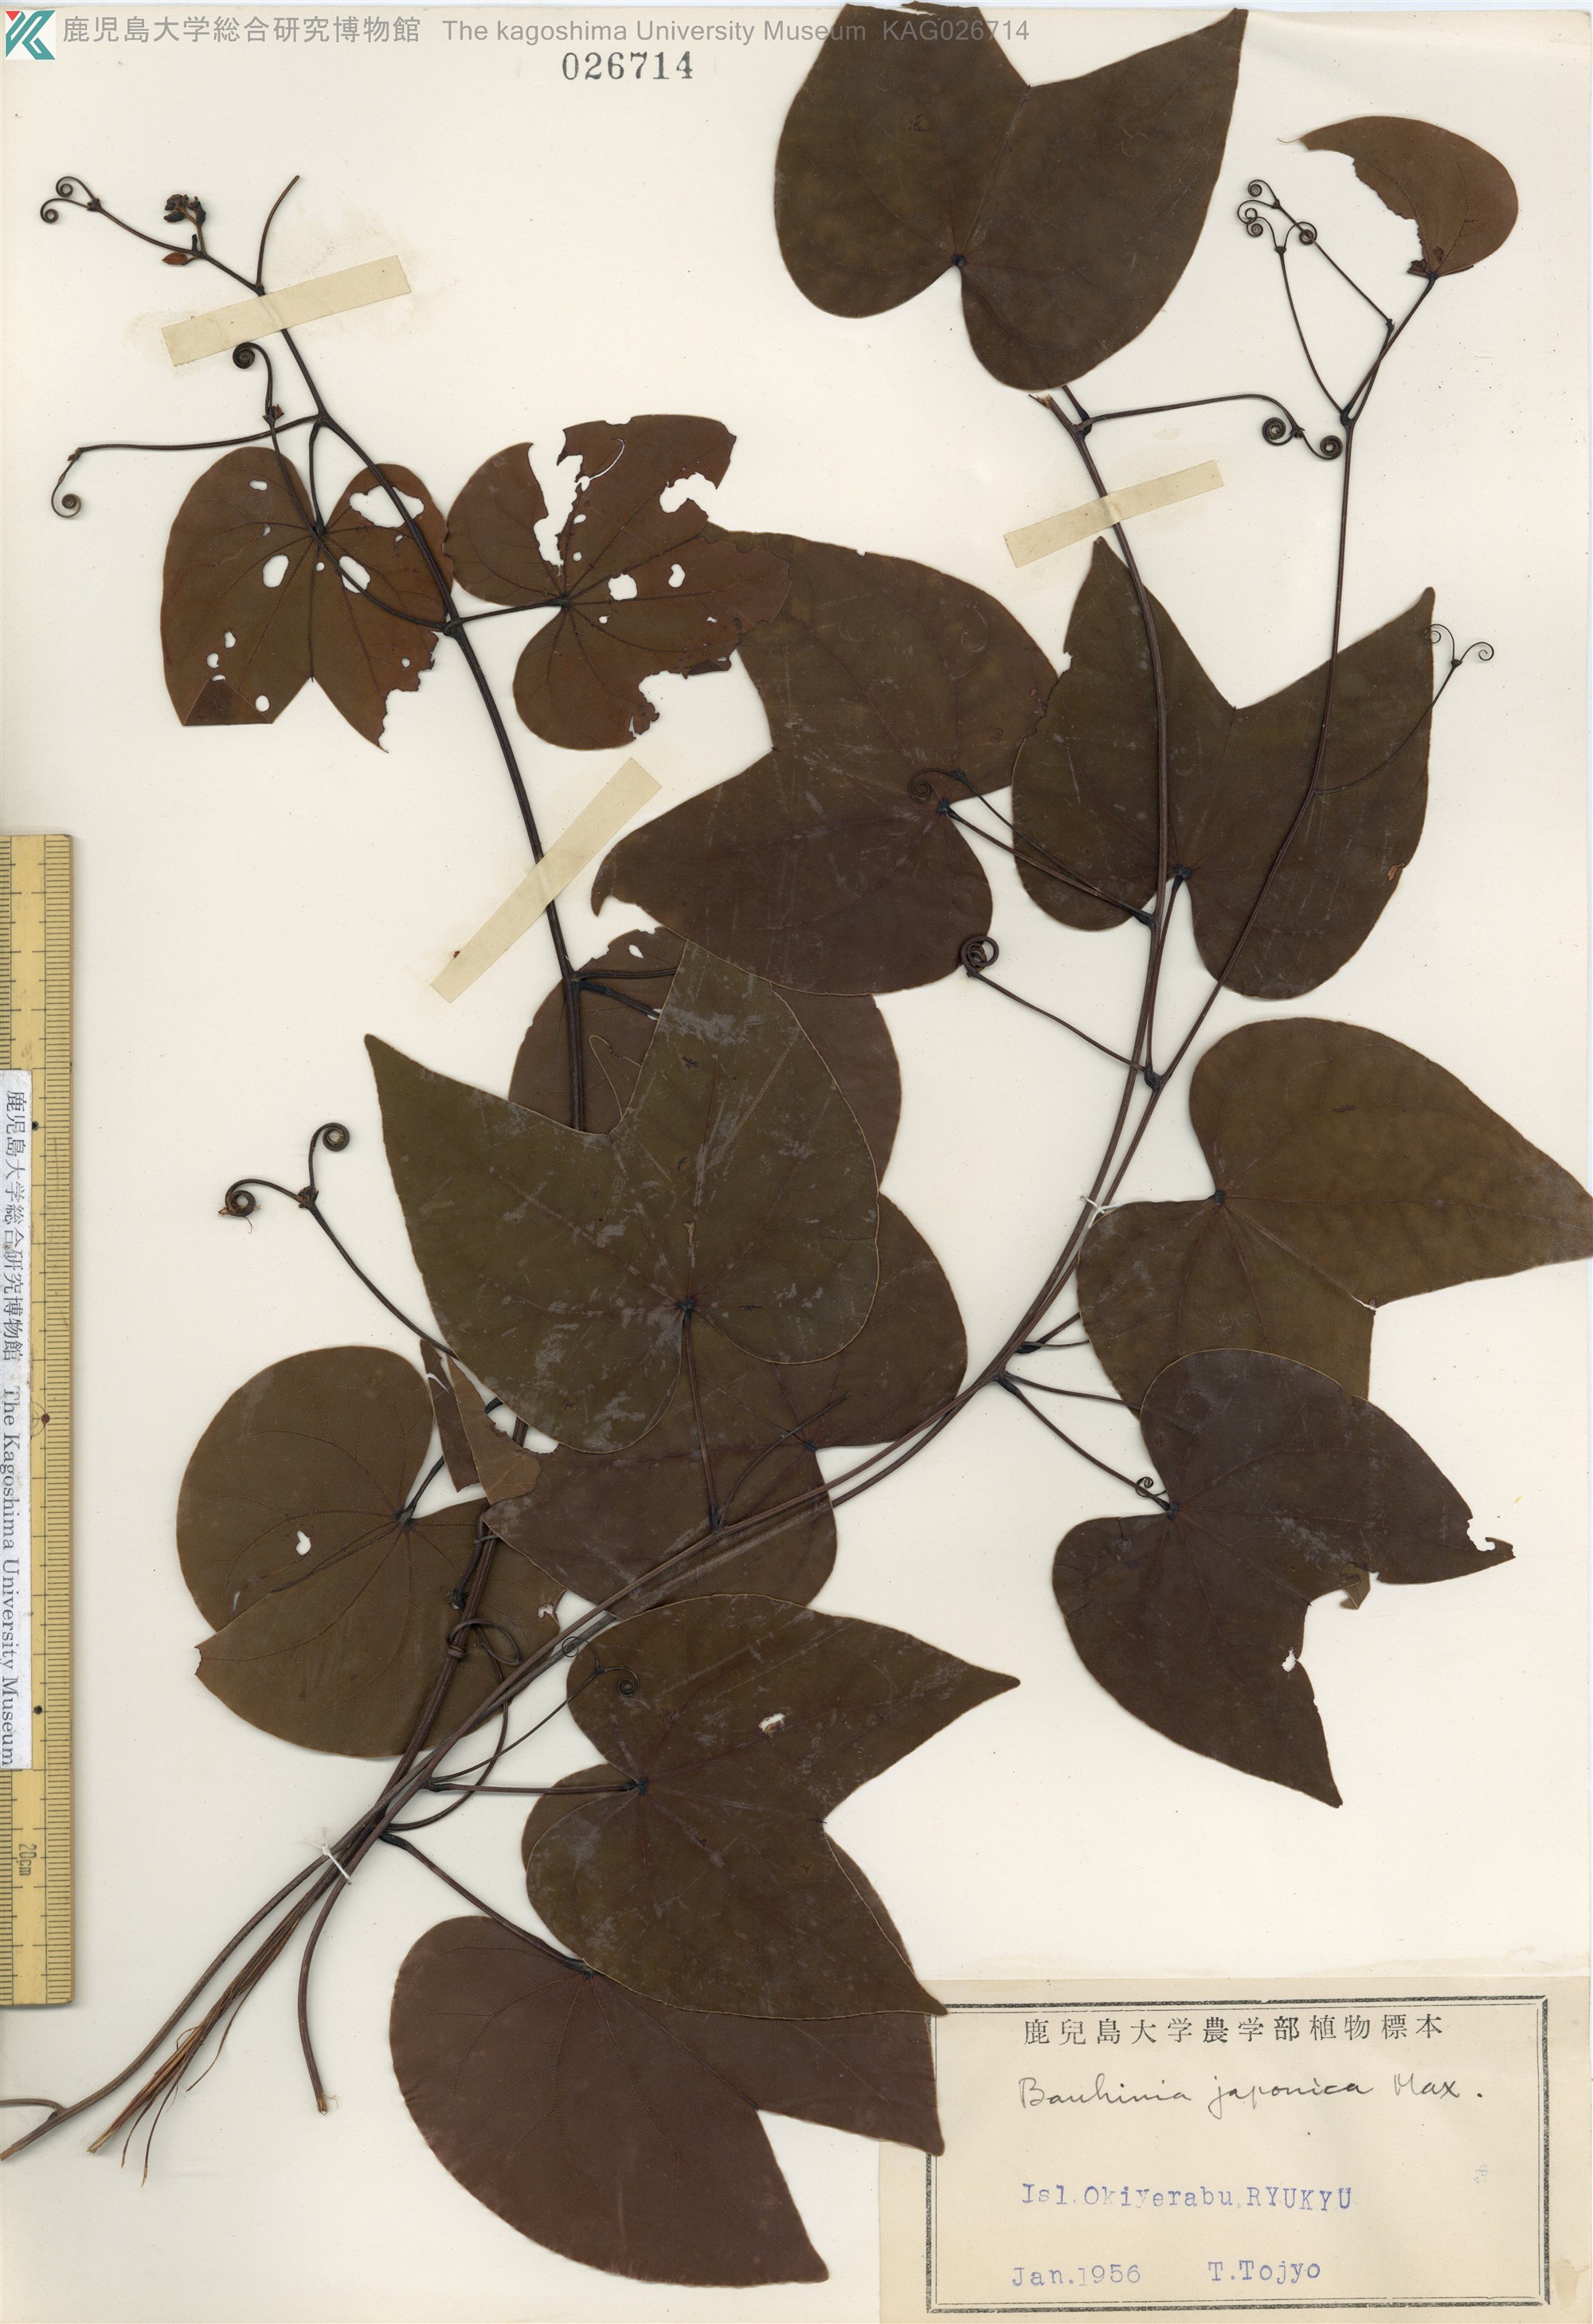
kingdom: Plantae
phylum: Tracheophyta
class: Magnoliopsida
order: Fabales
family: Fabaceae
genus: Phanera
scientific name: Phanera japonica
